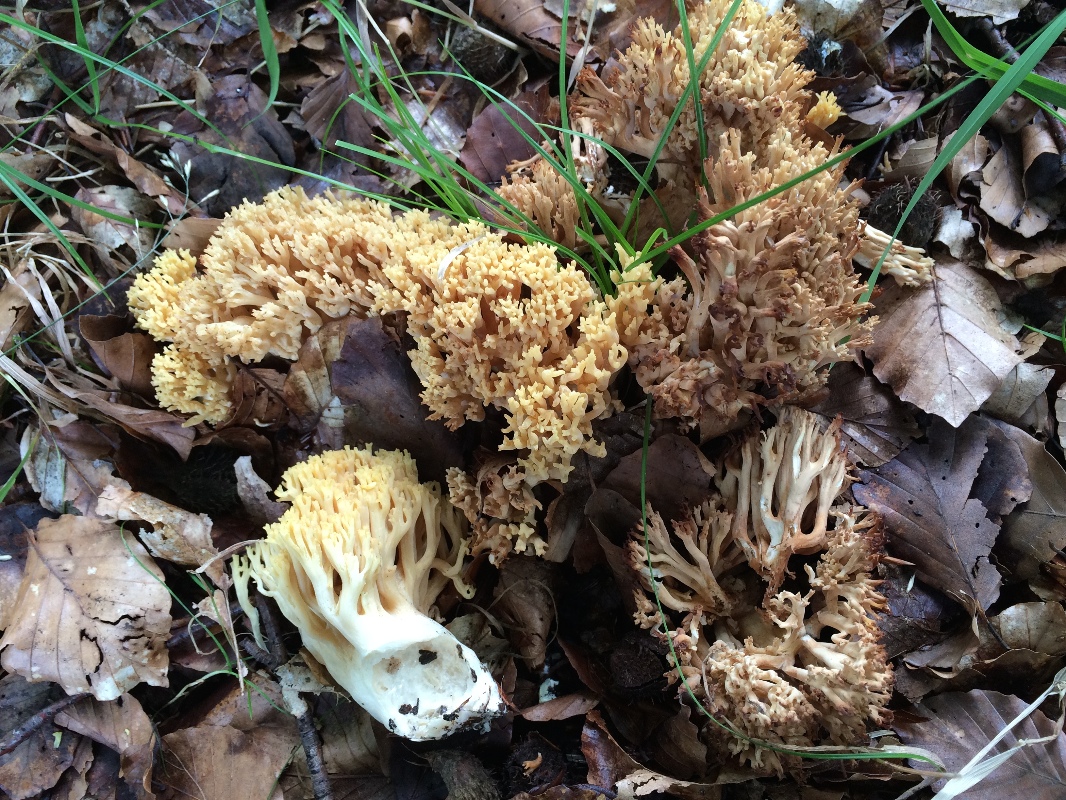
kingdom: Fungi
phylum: Basidiomycota
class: Agaricomycetes
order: Gomphales
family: Gomphaceae
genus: Ramaria
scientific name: Ramaria krieglsteineri
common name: smalsporet koralsvamp
